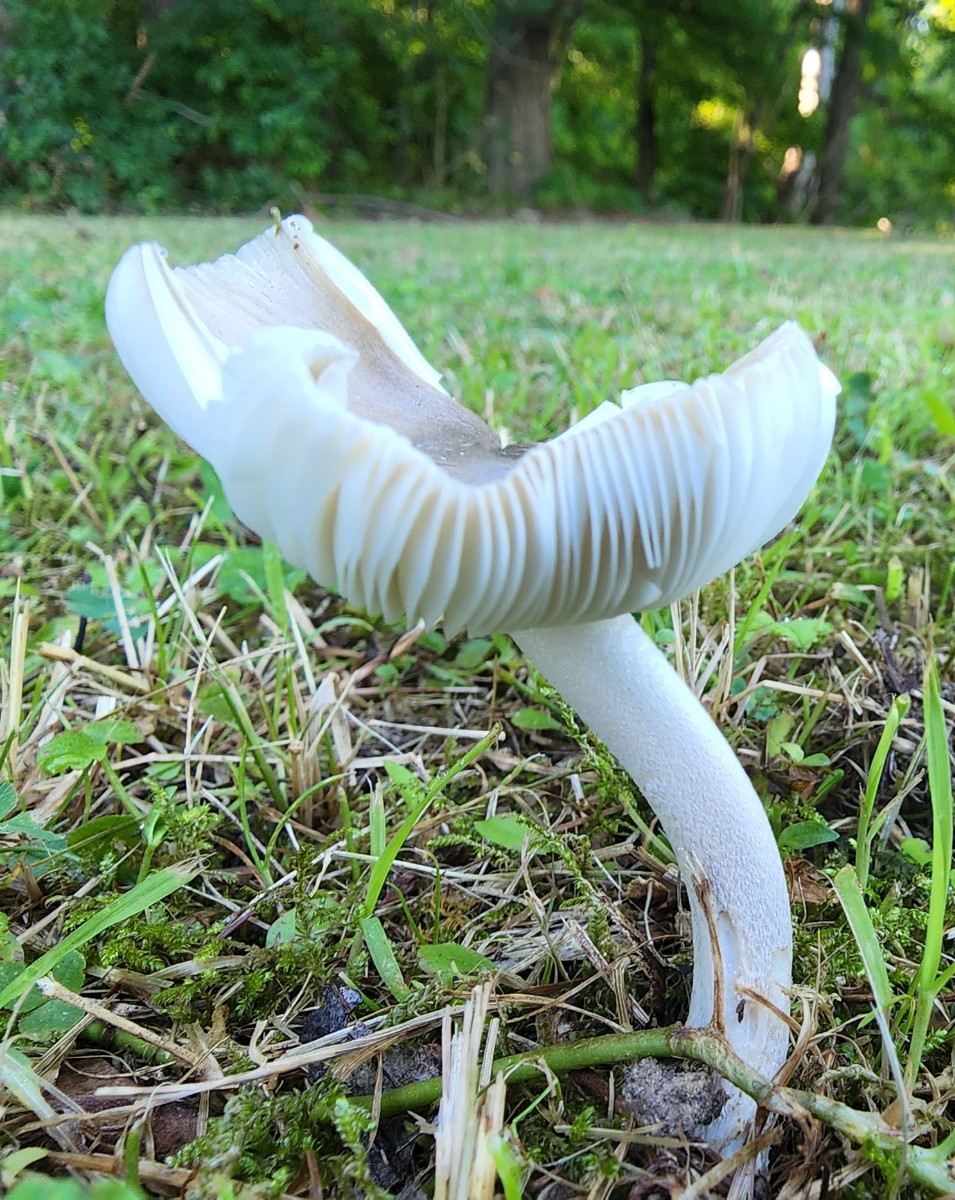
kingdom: Fungi
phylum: Basidiomycota
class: Agaricomycetes
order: Agaricales
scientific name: Agaricales
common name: champignonordenen
